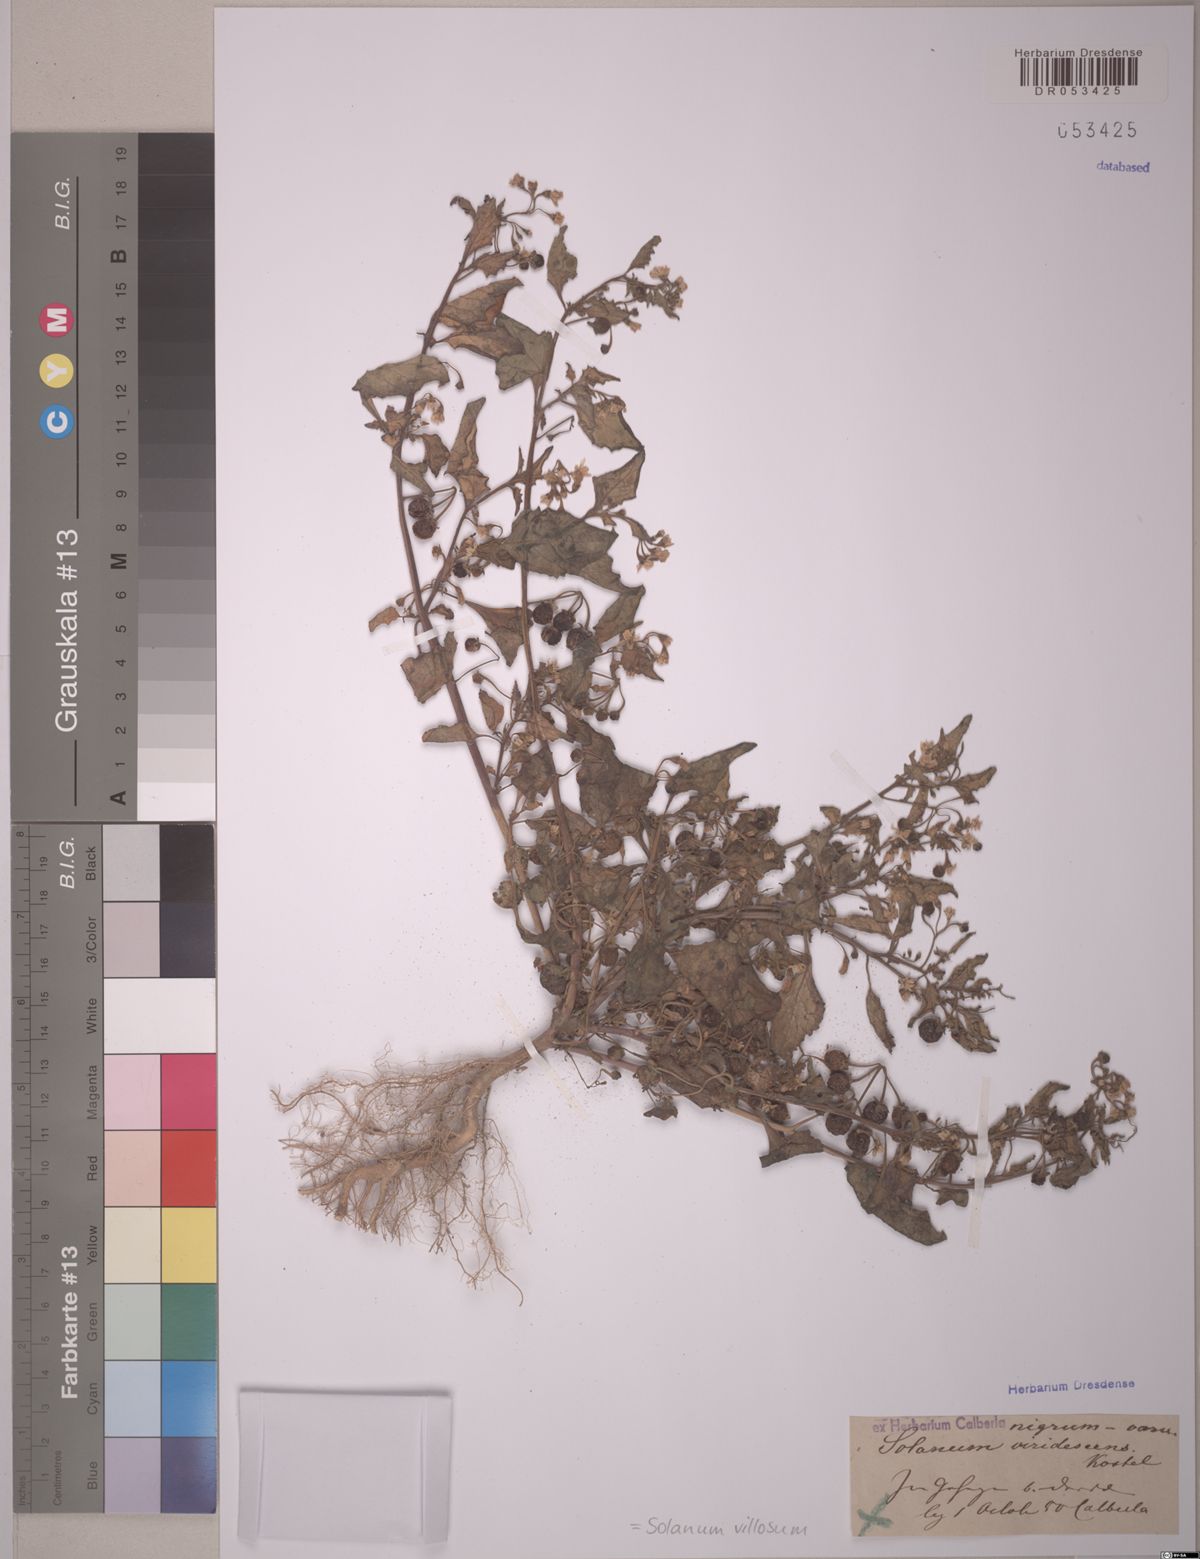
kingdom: Plantae
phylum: Tracheophyta
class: Magnoliopsida
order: Solanales
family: Solanaceae
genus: Solanum
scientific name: Solanum villosum
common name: Red nightshade
